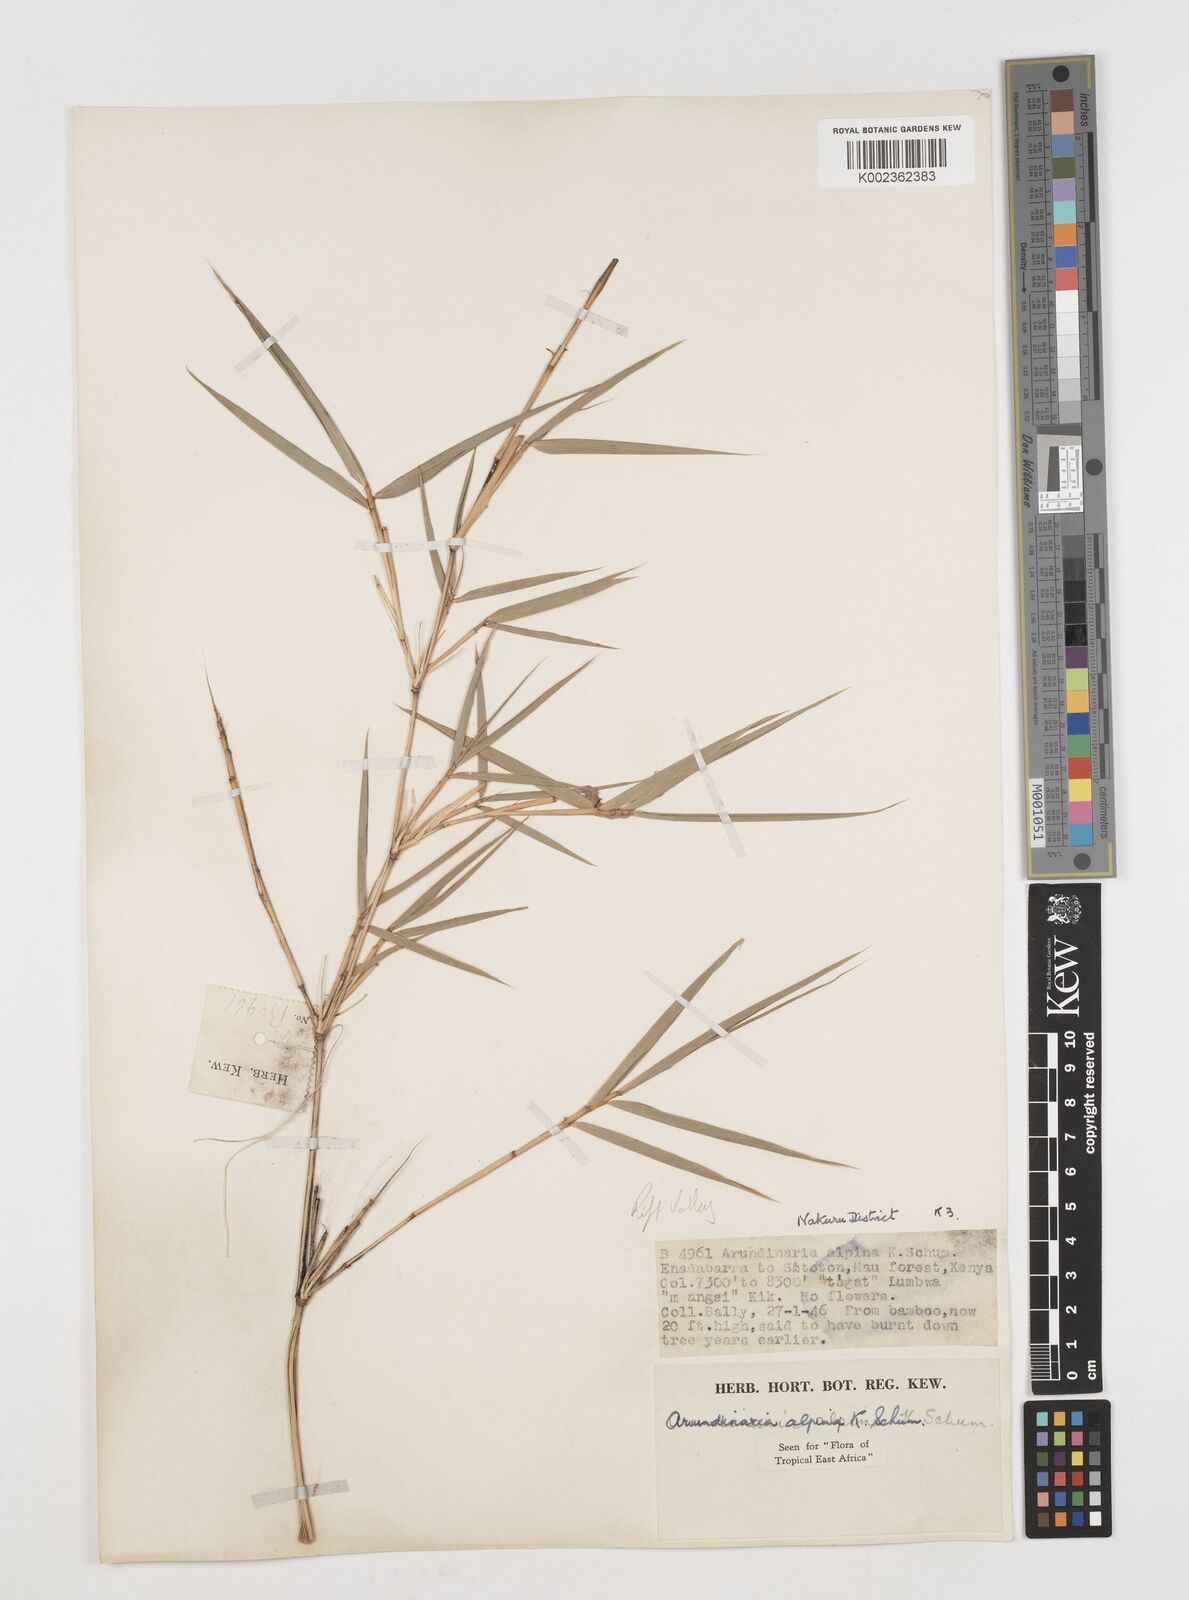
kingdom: Plantae
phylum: Tracheophyta
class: Liliopsida
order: Poales
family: Poaceae
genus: Oldeania
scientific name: Oldeania alpina
